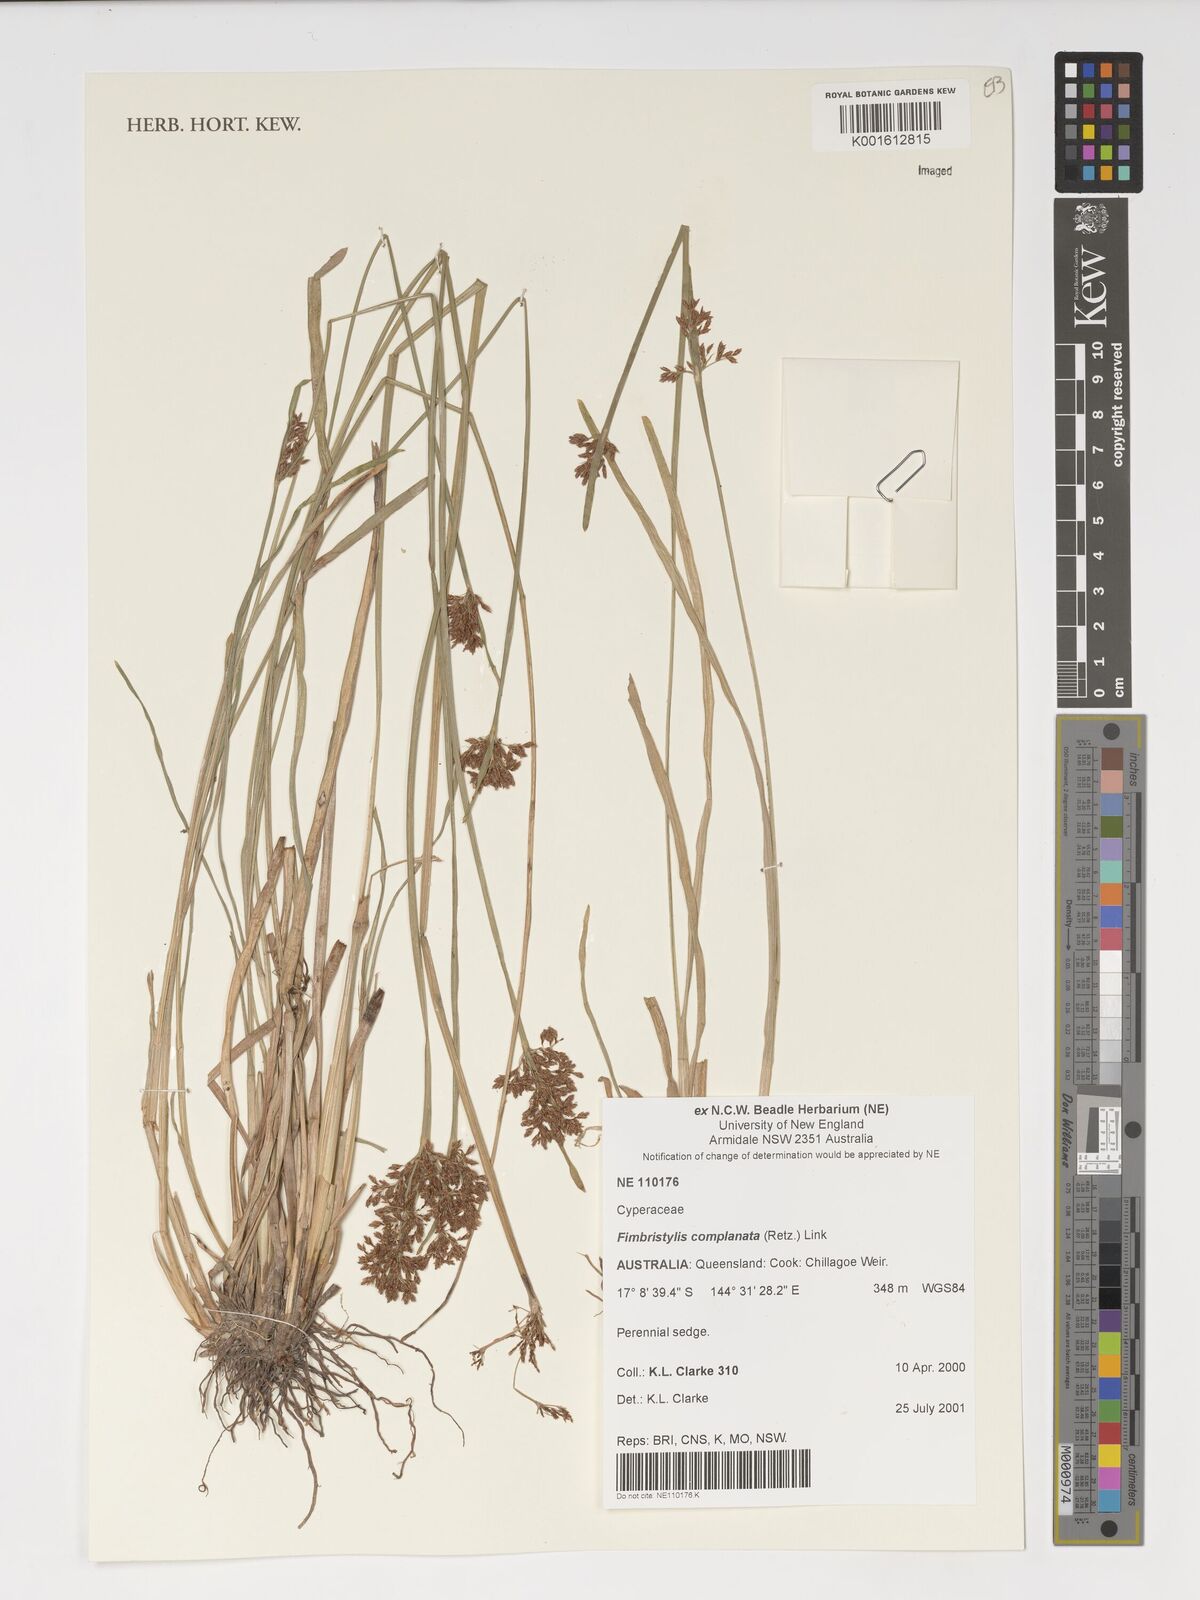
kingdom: Plantae
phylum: Tracheophyta
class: Liliopsida
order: Poales
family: Cyperaceae
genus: Fimbristylis
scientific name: Fimbristylis complanata
